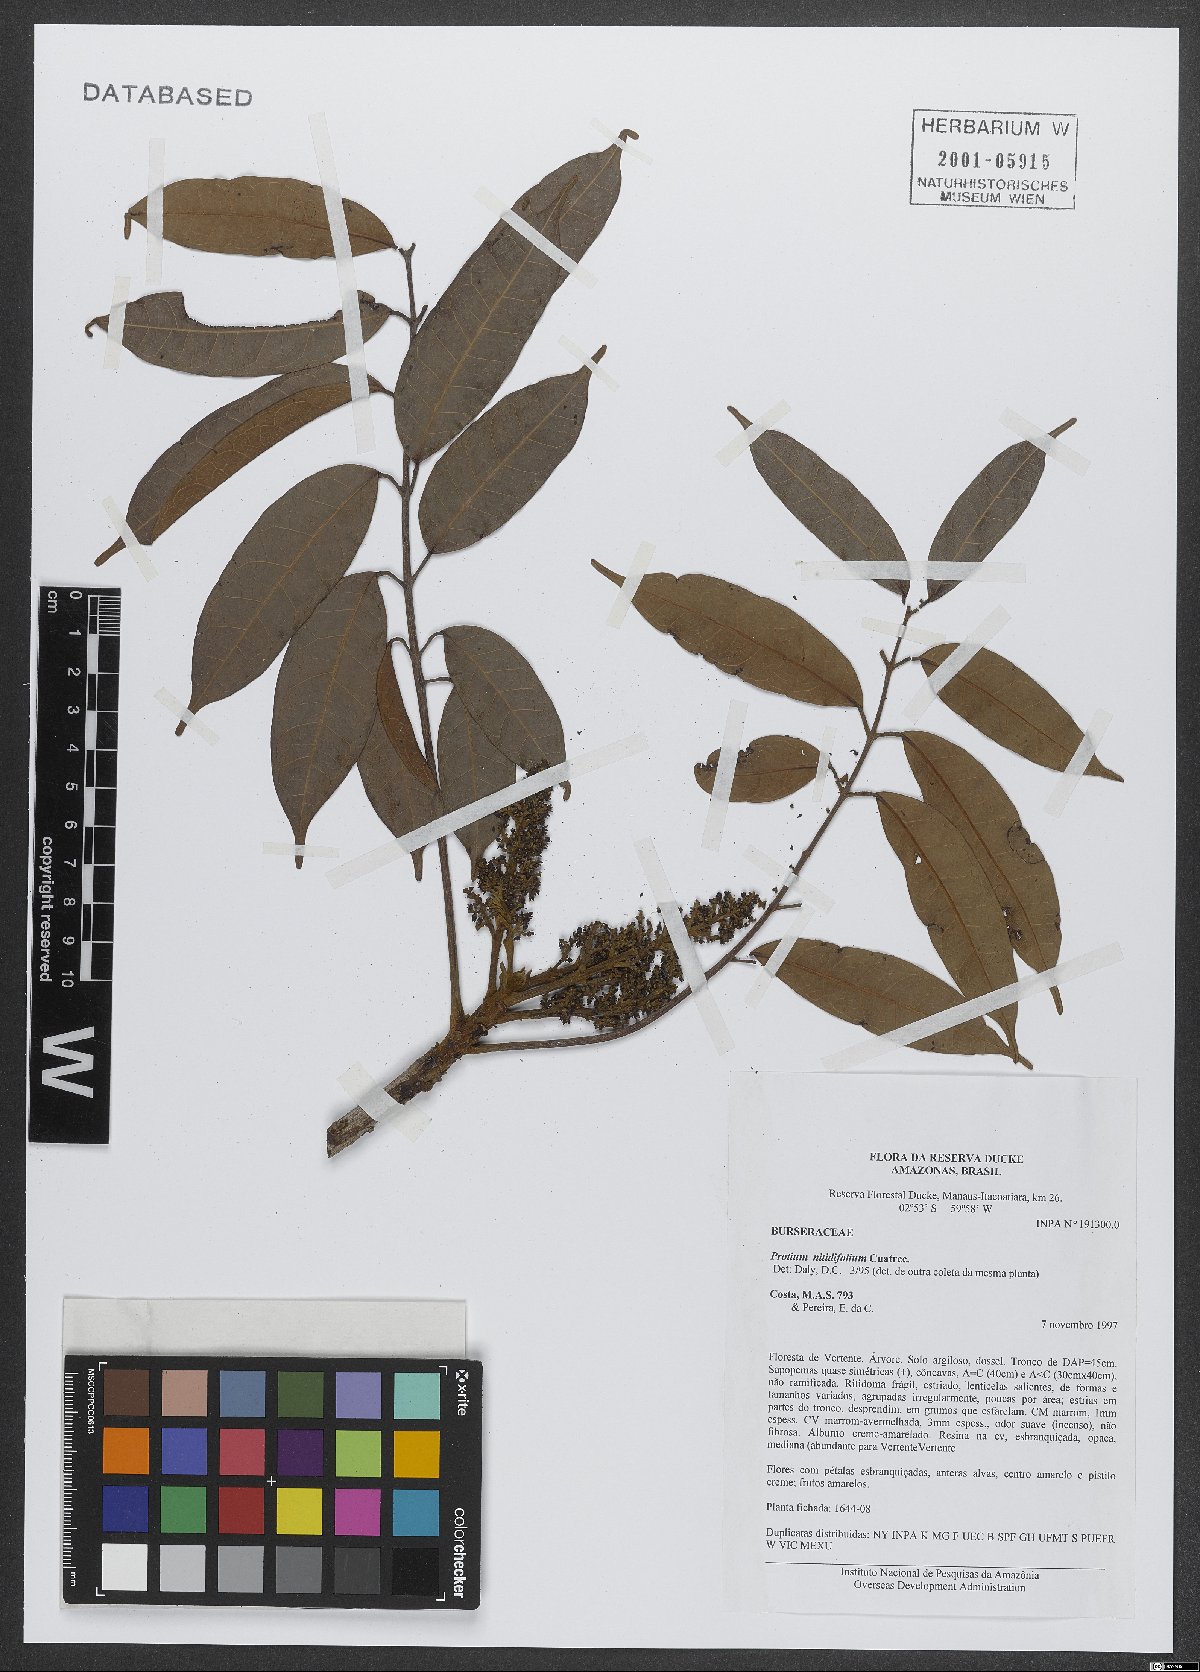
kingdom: Plantae
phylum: Tracheophyta
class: Magnoliopsida
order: Sapindales
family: Burseraceae
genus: Protium
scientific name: Protium nitidifolium
